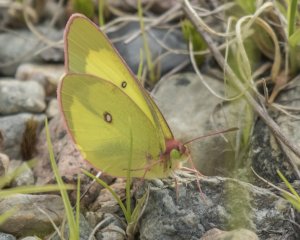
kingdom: Animalia
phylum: Arthropoda
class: Insecta
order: Lepidoptera
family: Pieridae
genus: Colias
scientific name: Colias interior
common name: Pink-edged Sulphur
